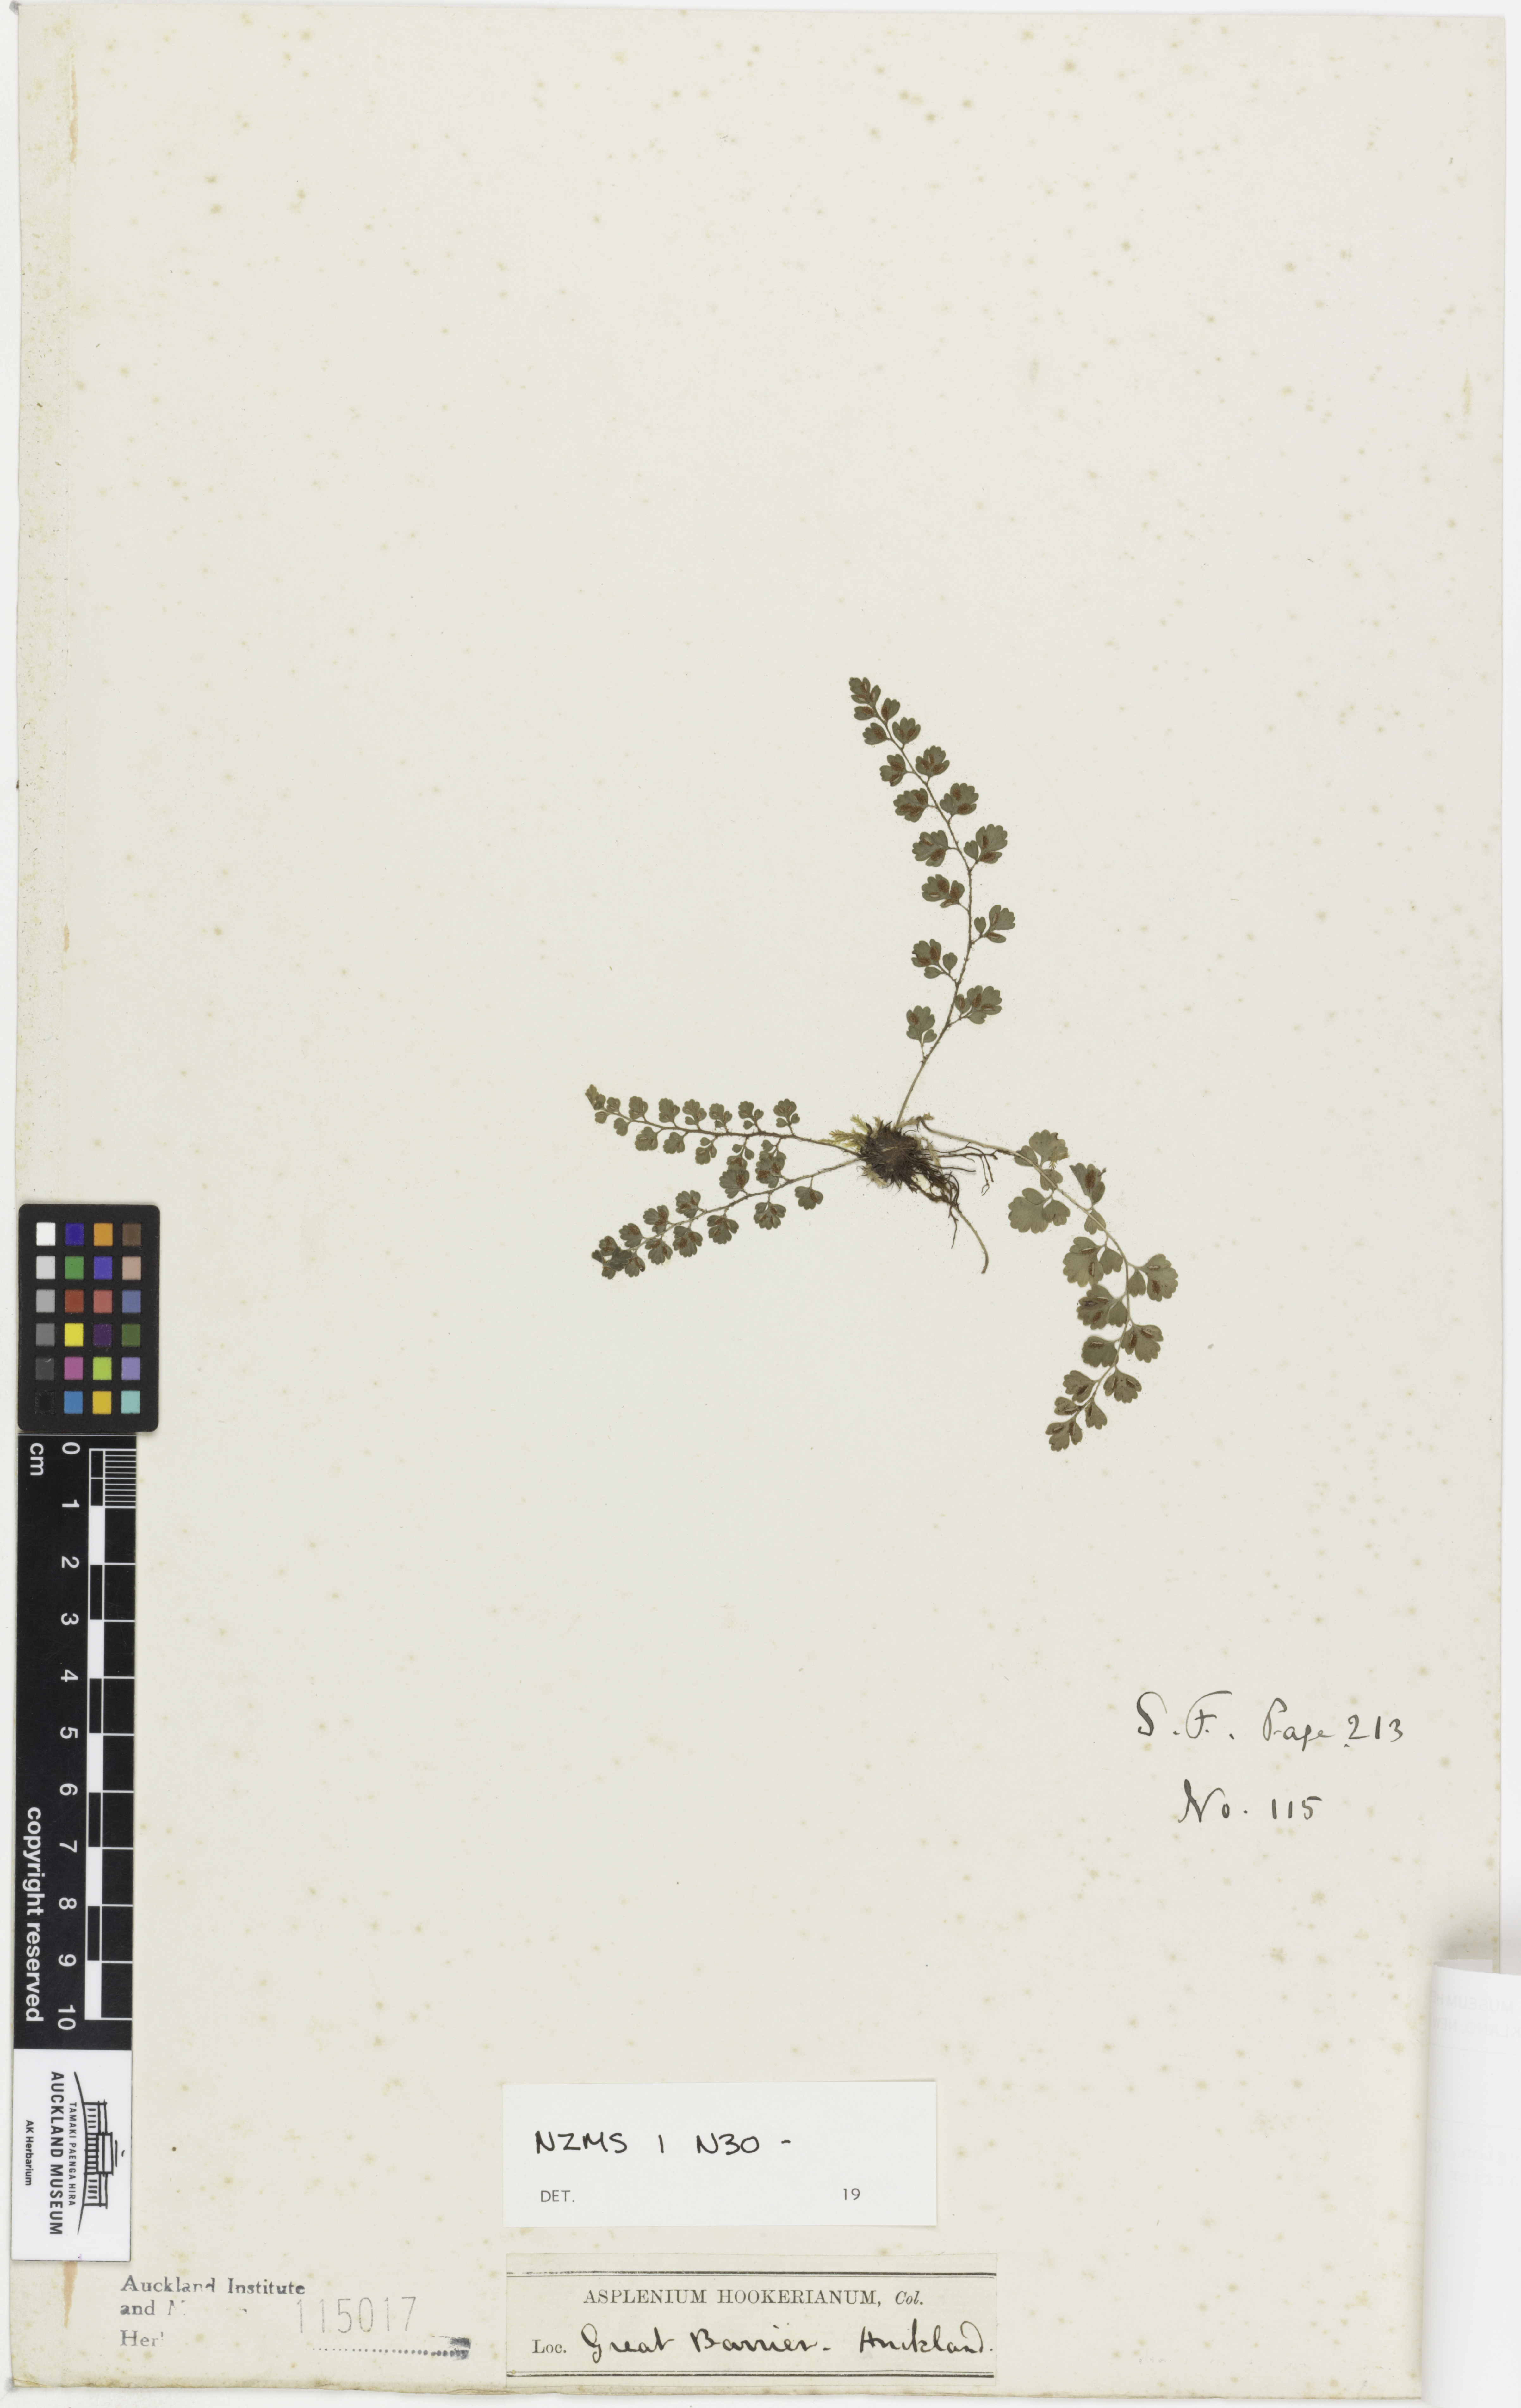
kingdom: Plantae
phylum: Tracheophyta
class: Polypodiopsida
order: Polypodiales
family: Aspleniaceae
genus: Asplenium
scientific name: Asplenium hookerianum
